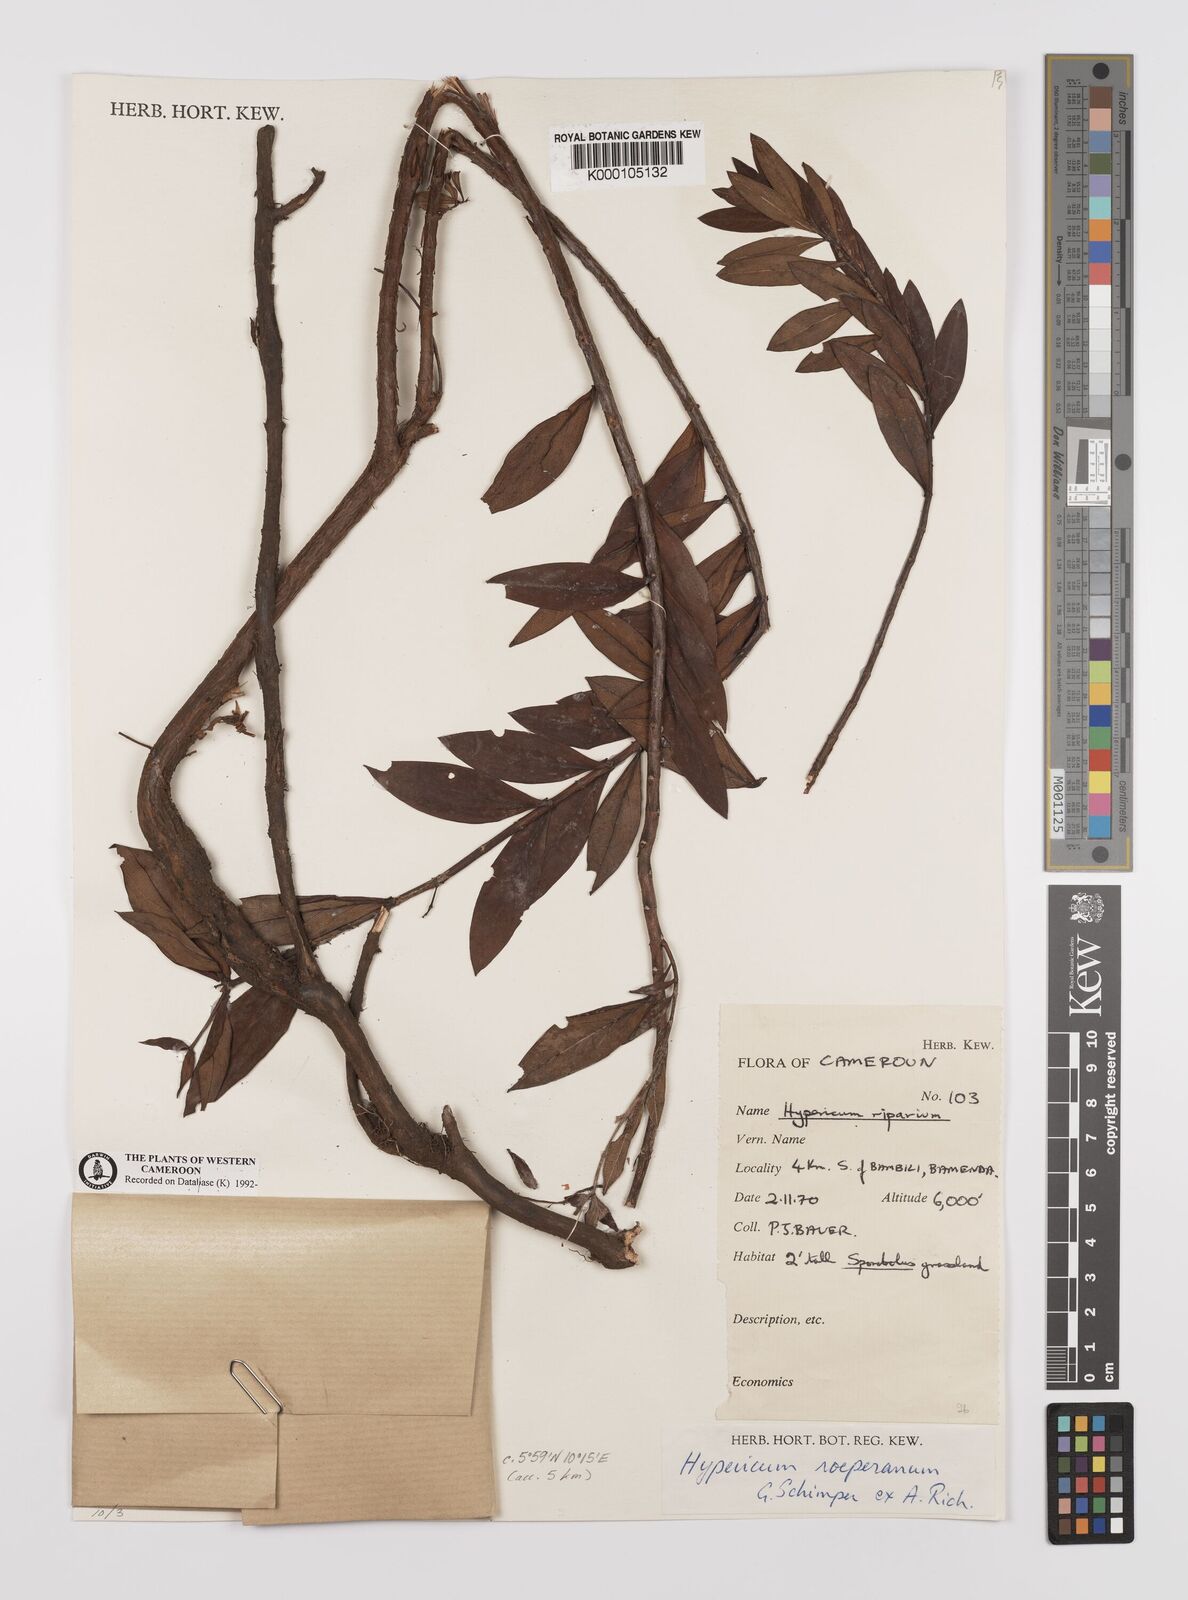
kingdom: Plantae
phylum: Tracheophyta
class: Magnoliopsida
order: Malpighiales
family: Hypericaceae
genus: Hypericum
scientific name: Hypericum
